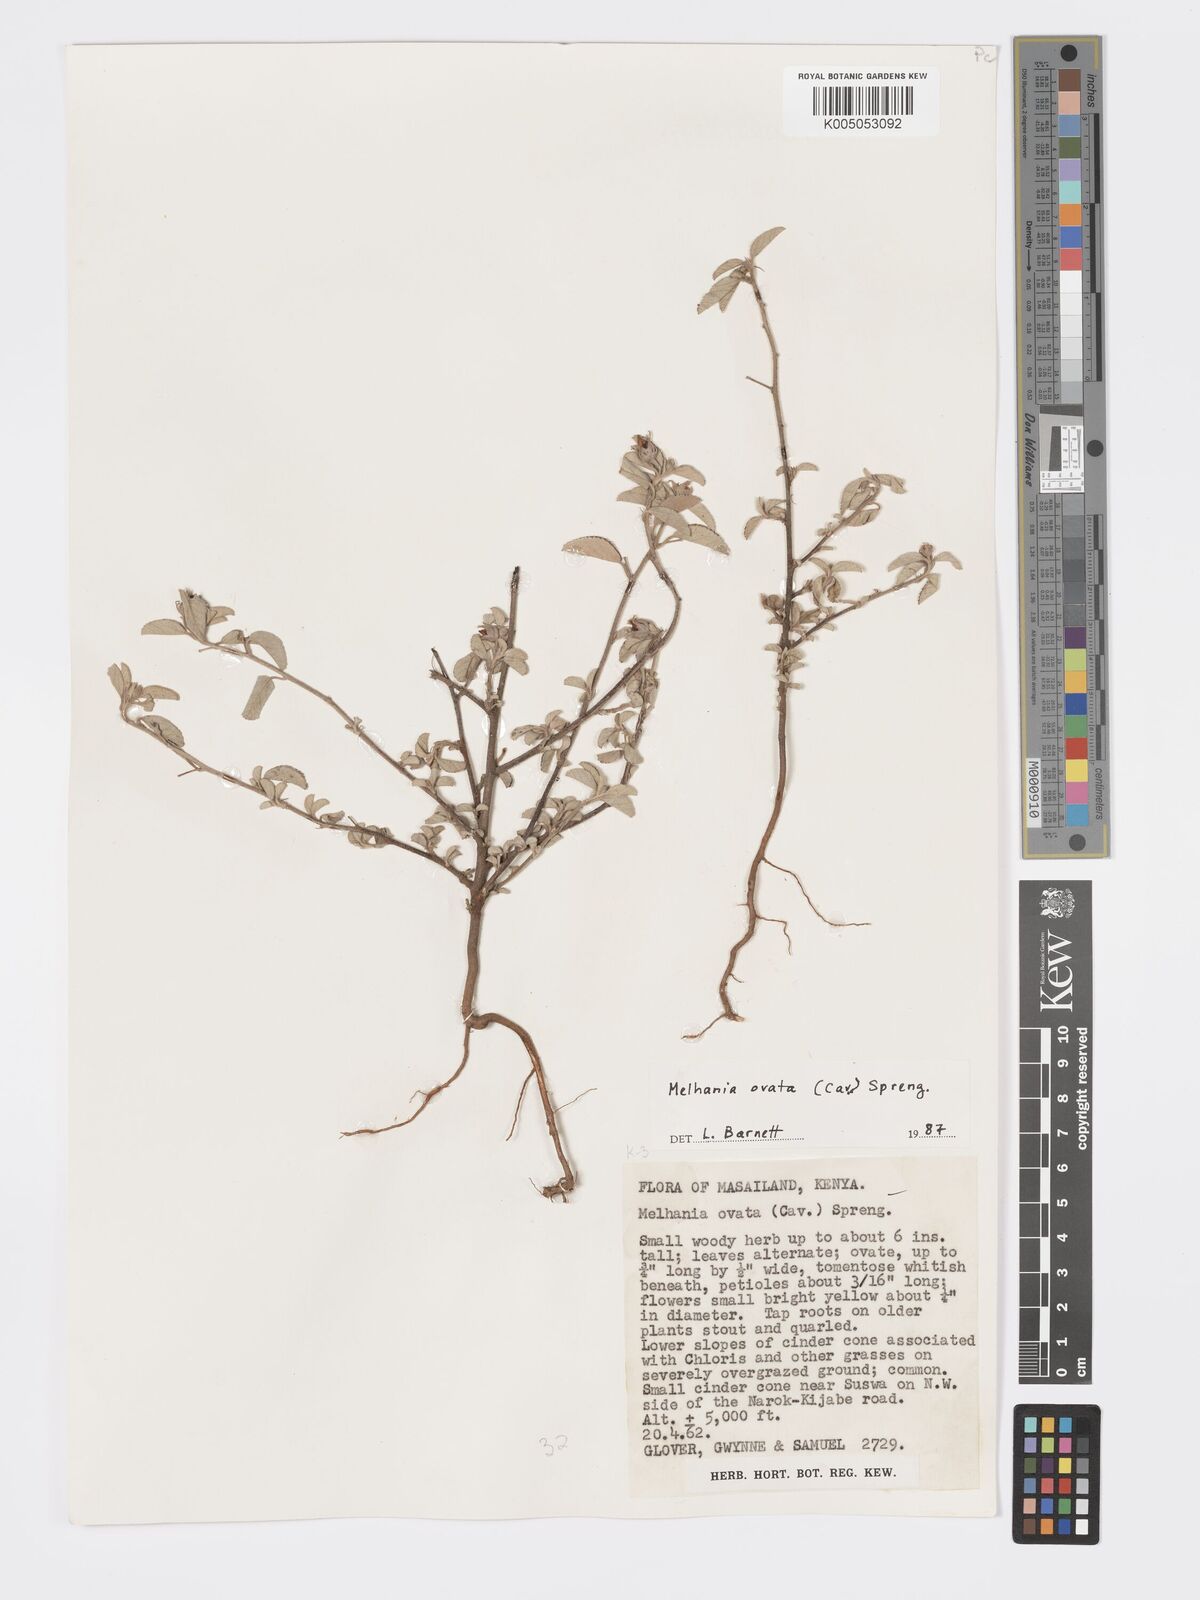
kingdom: Plantae
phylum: Tracheophyta
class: Magnoliopsida
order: Malvales
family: Malvaceae
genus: Melhania
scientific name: Melhania ovata
